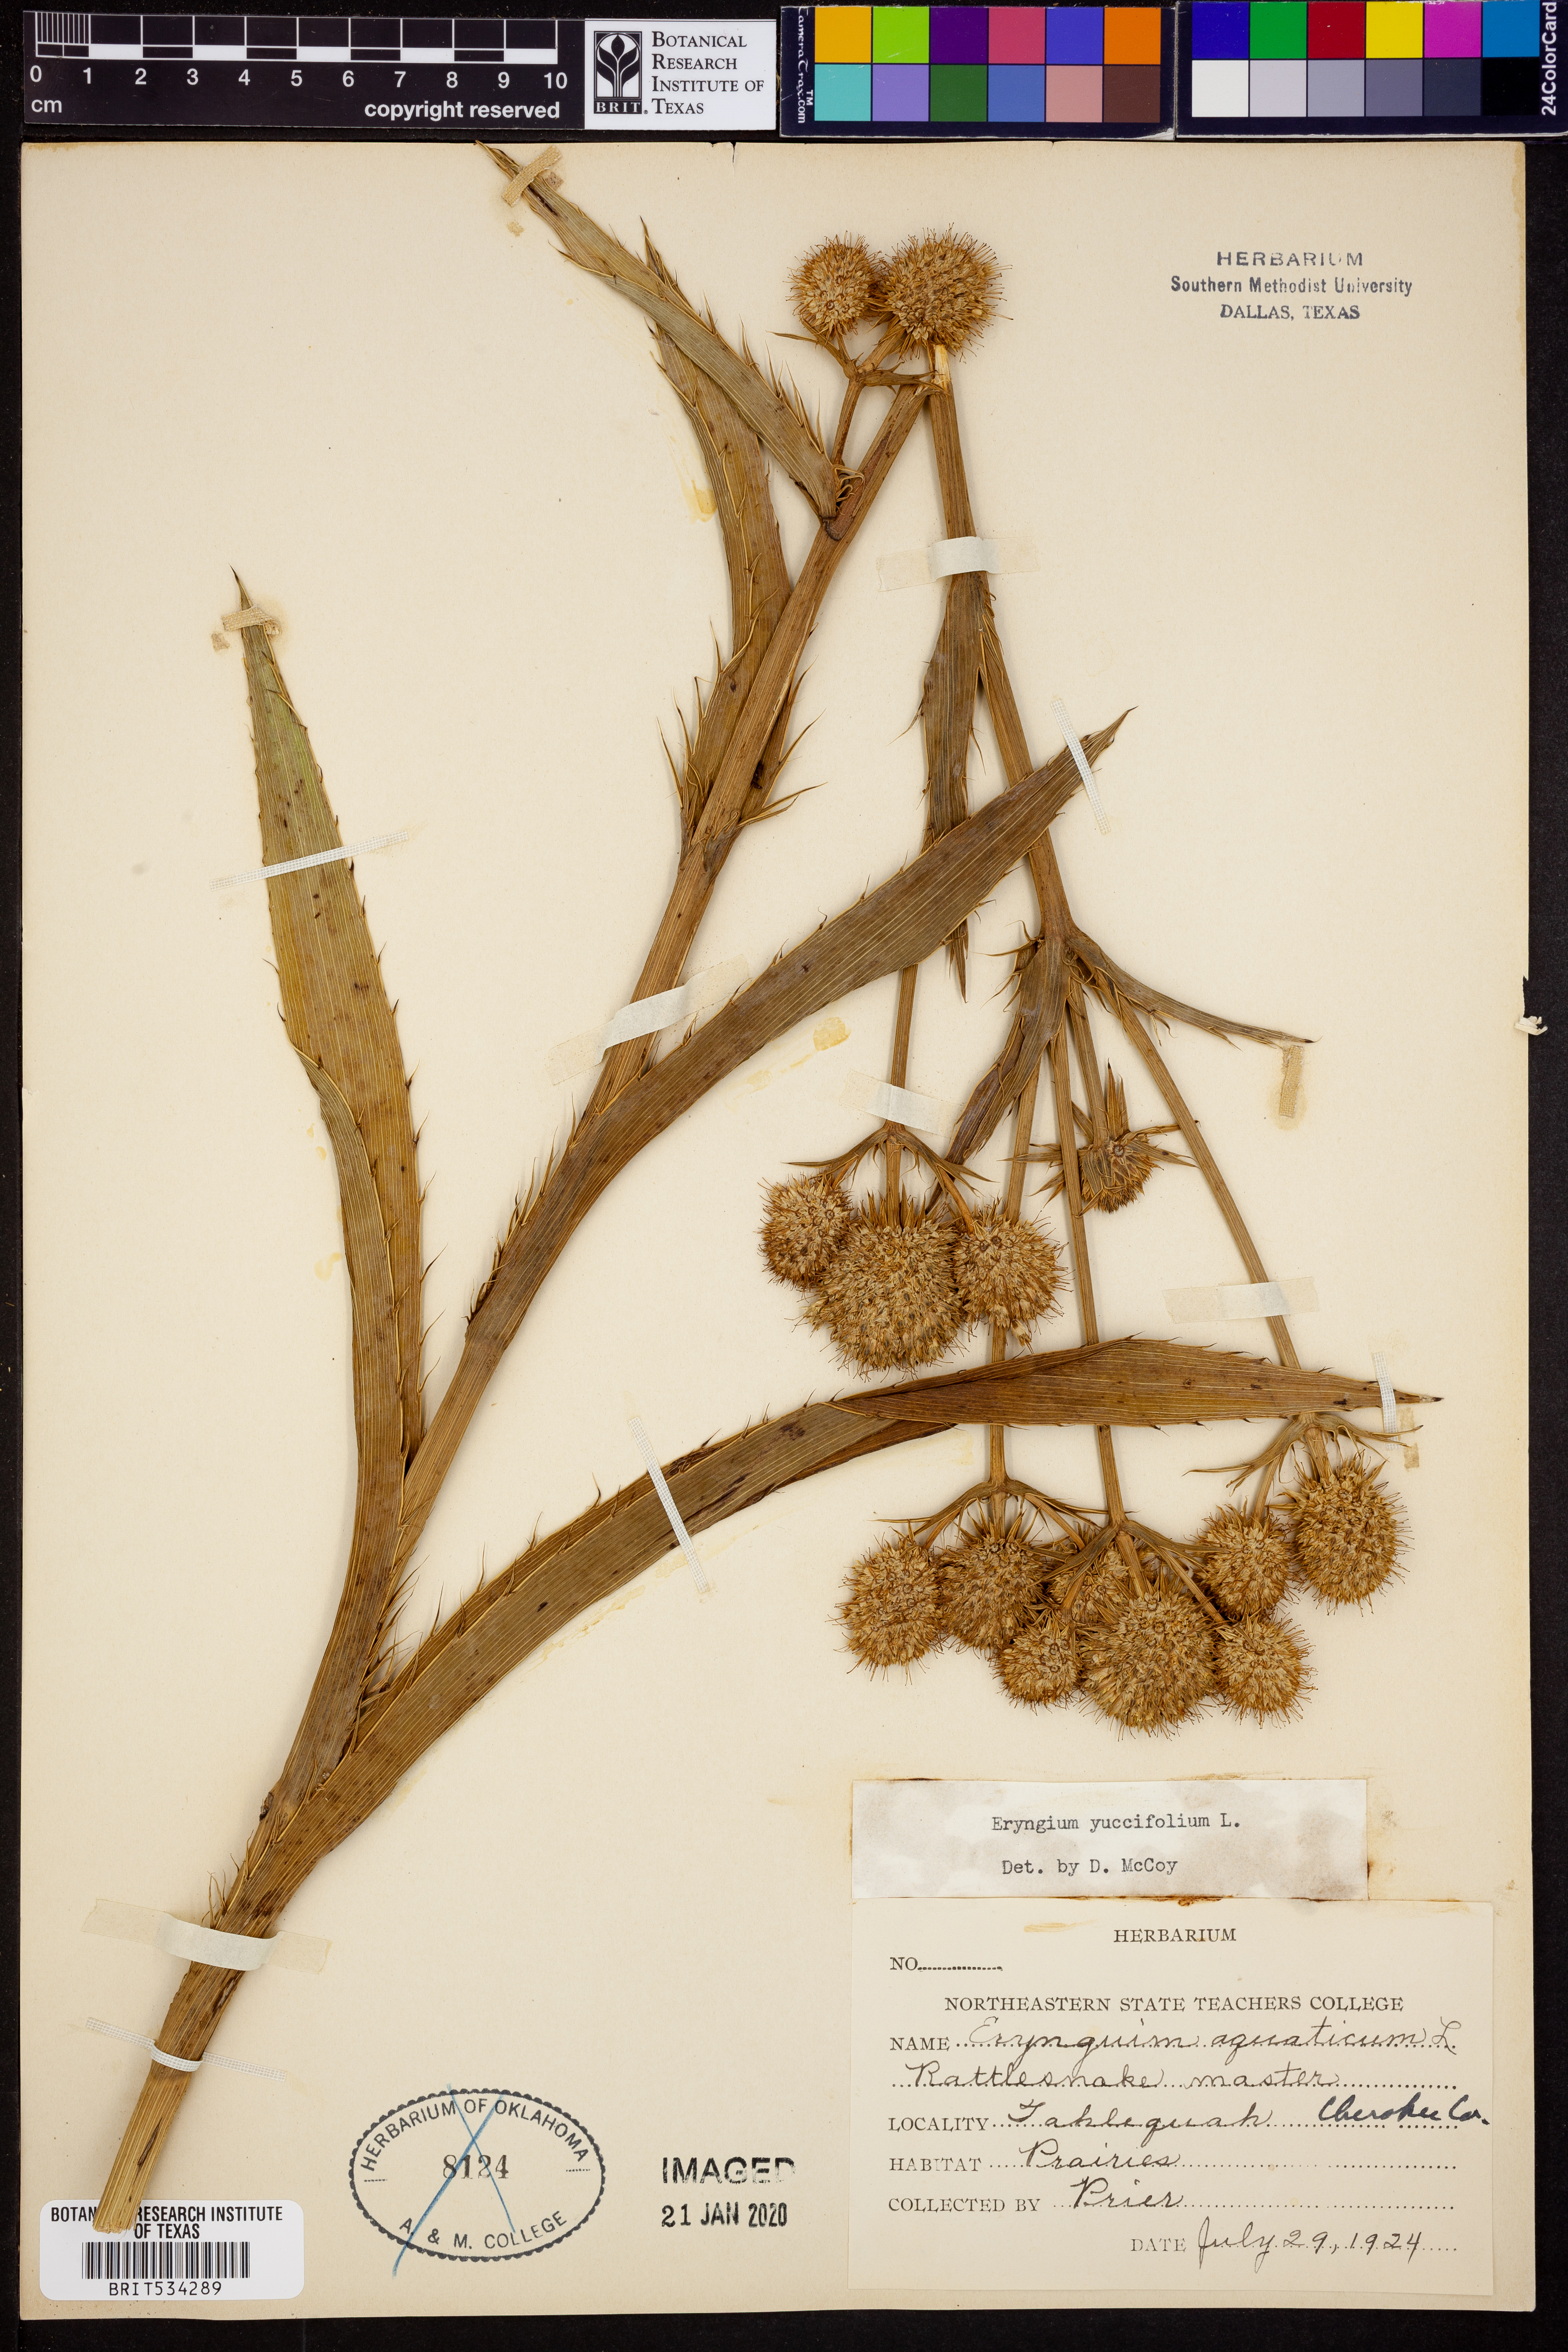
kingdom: Plantae
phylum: Tracheophyta
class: Magnoliopsida
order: Apiales
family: Apiaceae
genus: Eryngium
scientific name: Eryngium yuccifolium
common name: Button eryngo
